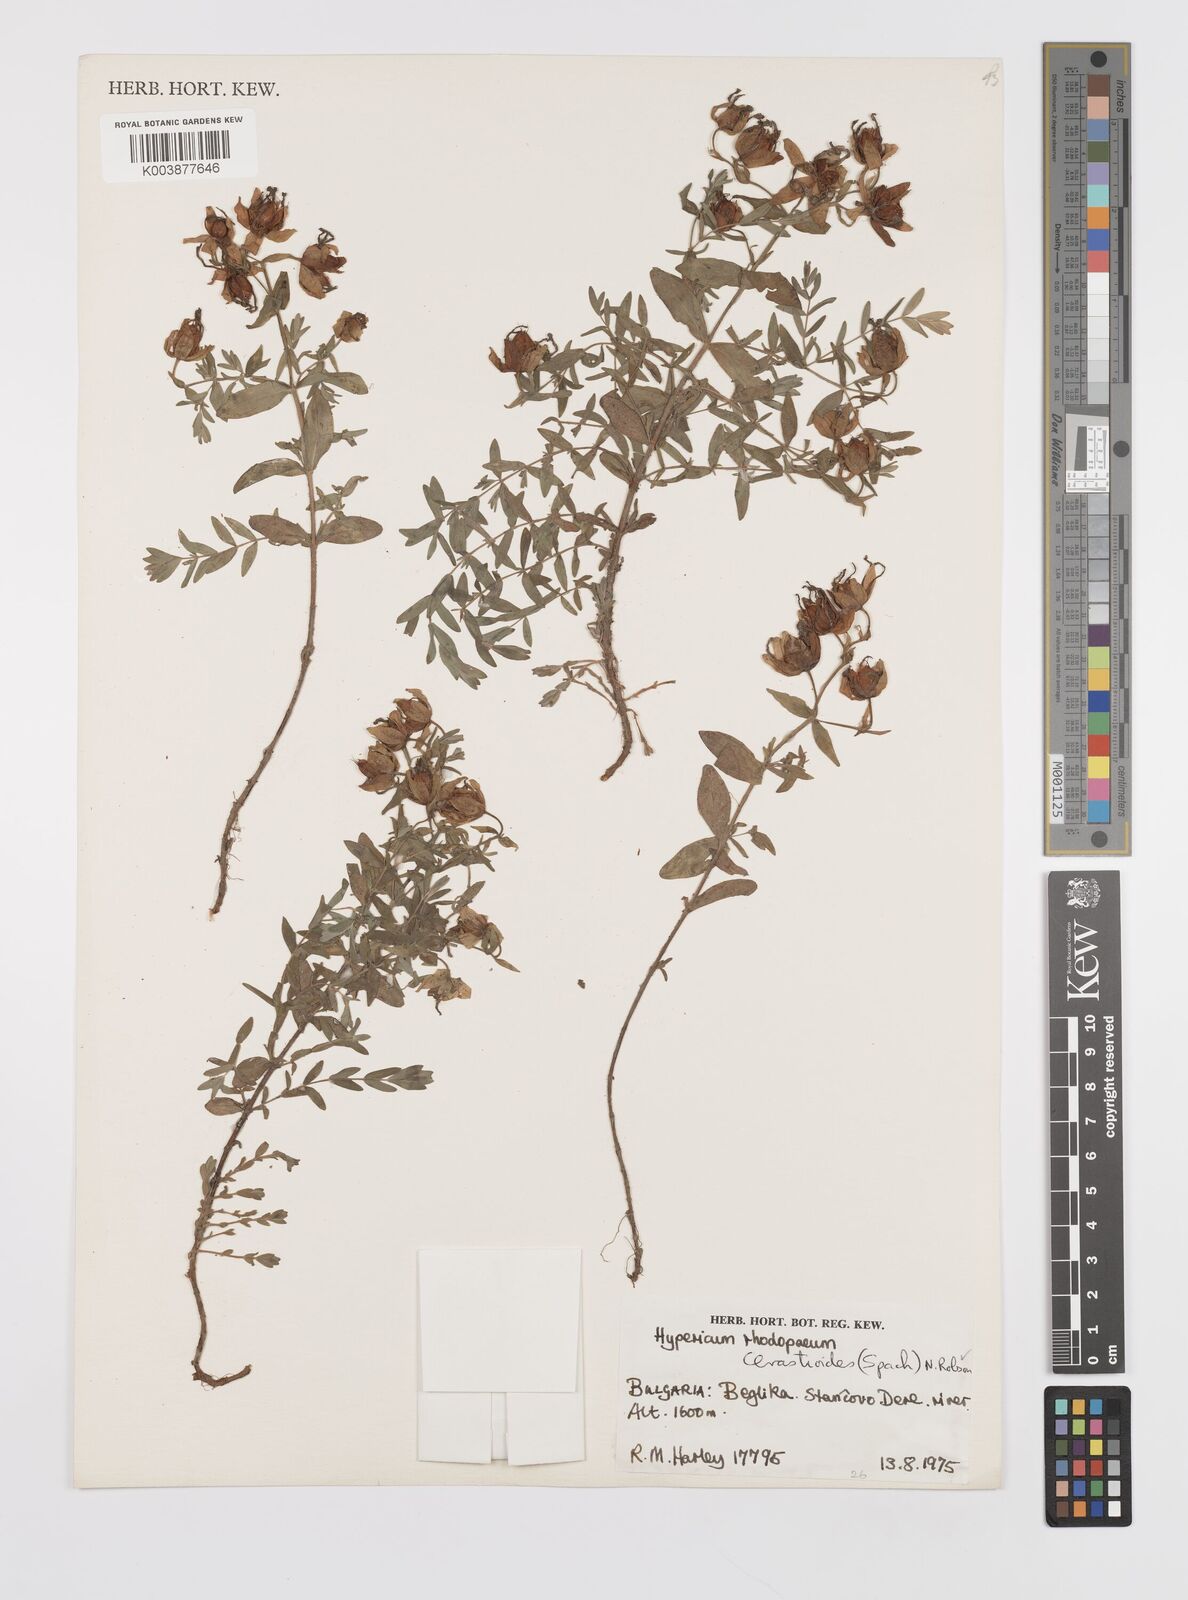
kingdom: Plantae
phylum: Tracheophyta
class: Magnoliopsida
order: Malpighiales
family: Hypericaceae
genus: Hypericum
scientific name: Hypericum cerastoides
